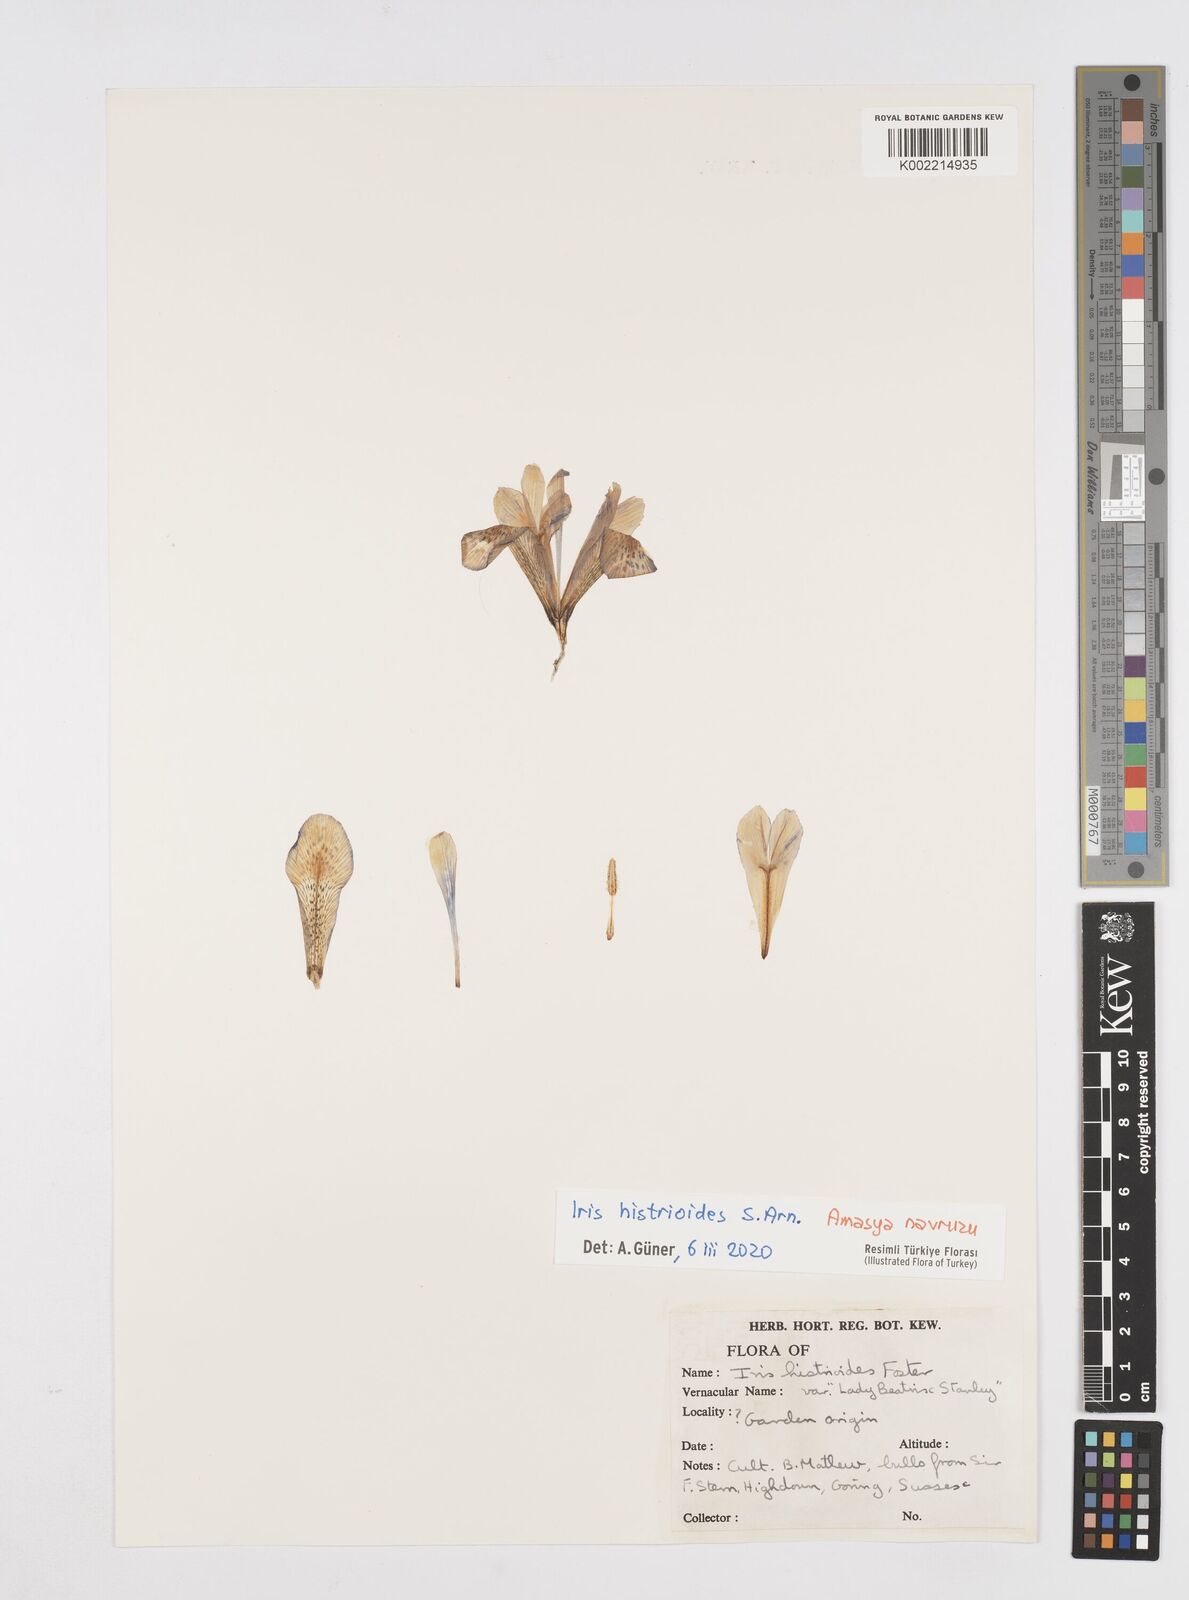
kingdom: Plantae
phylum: Tracheophyta
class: Liliopsida
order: Asparagales
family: Iridaceae
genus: Iris
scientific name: Iris histrioides
